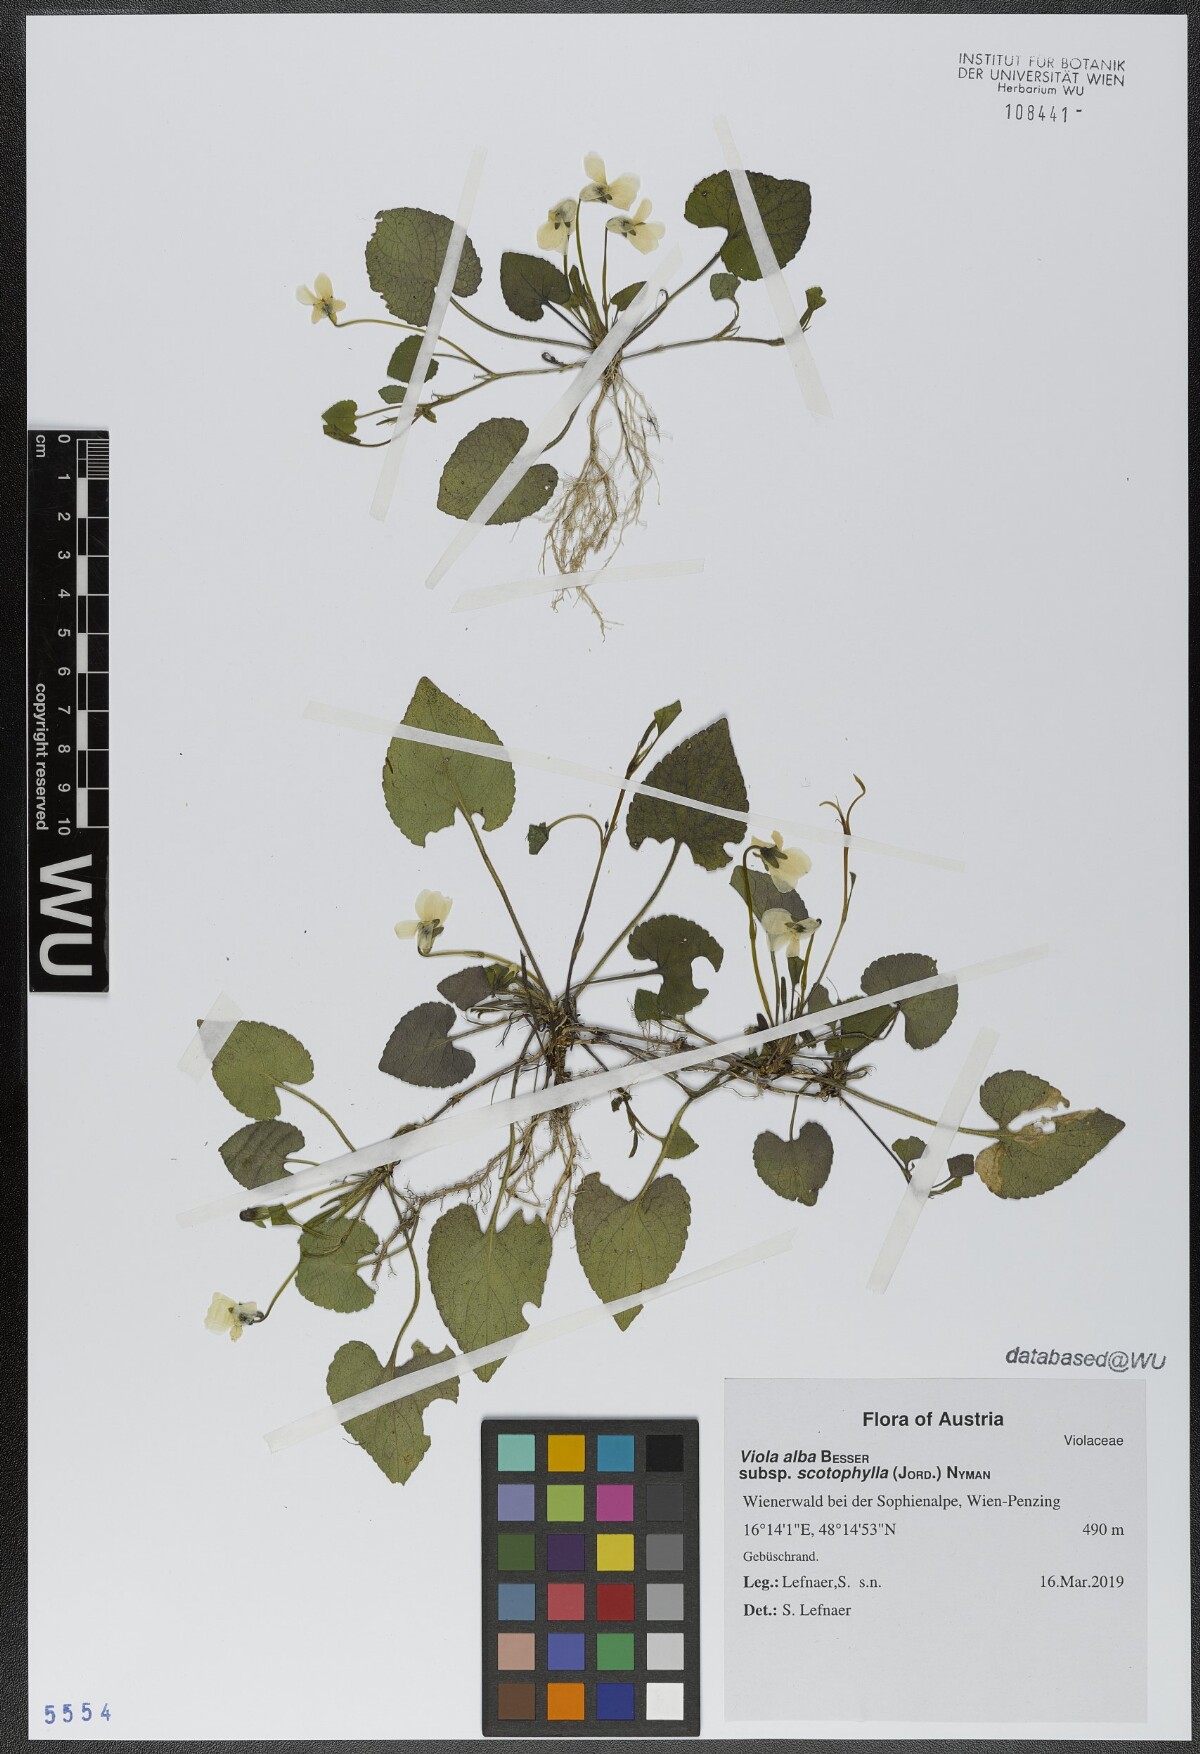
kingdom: Plantae
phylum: Tracheophyta
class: Magnoliopsida
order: Malpighiales
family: Violaceae
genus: Viola
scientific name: Viola alba
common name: White violet
